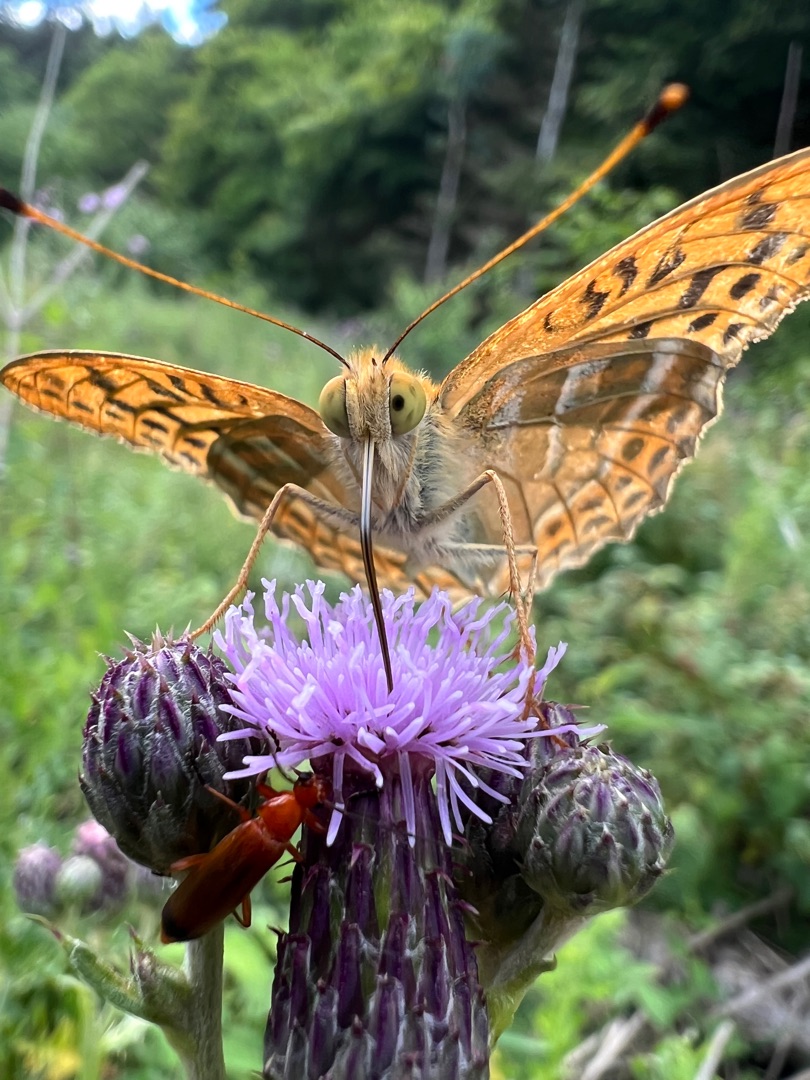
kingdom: Animalia
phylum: Arthropoda
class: Insecta
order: Lepidoptera
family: Nymphalidae
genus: Argynnis
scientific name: Argynnis paphia
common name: Kejserkåbe
